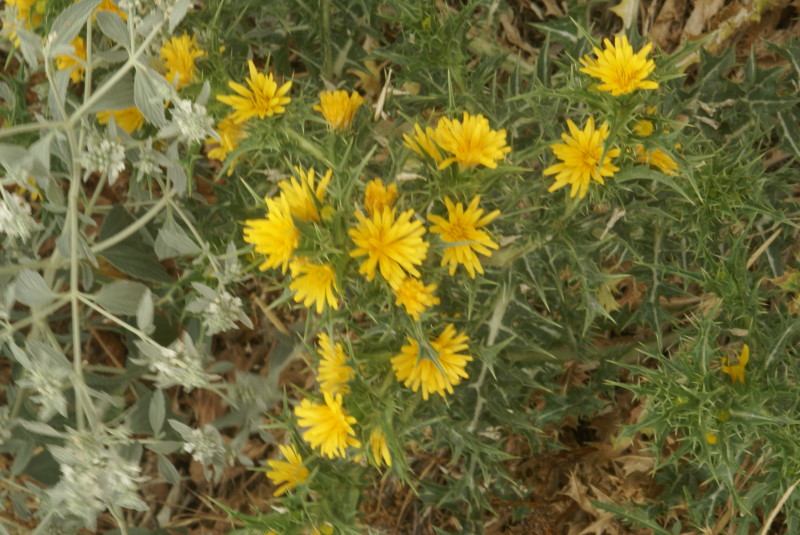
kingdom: Plantae
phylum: Tracheophyta
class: Magnoliopsida
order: Asterales
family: Asteraceae
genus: Carthamus
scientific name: Carthamus lanatus
